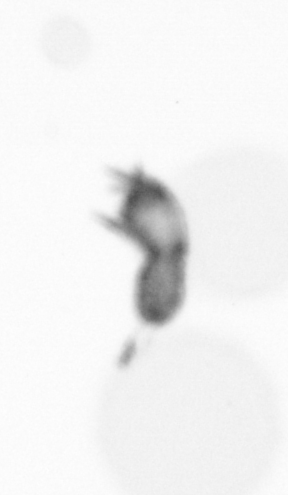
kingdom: Animalia
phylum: Arthropoda
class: Copepoda
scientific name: Copepoda
